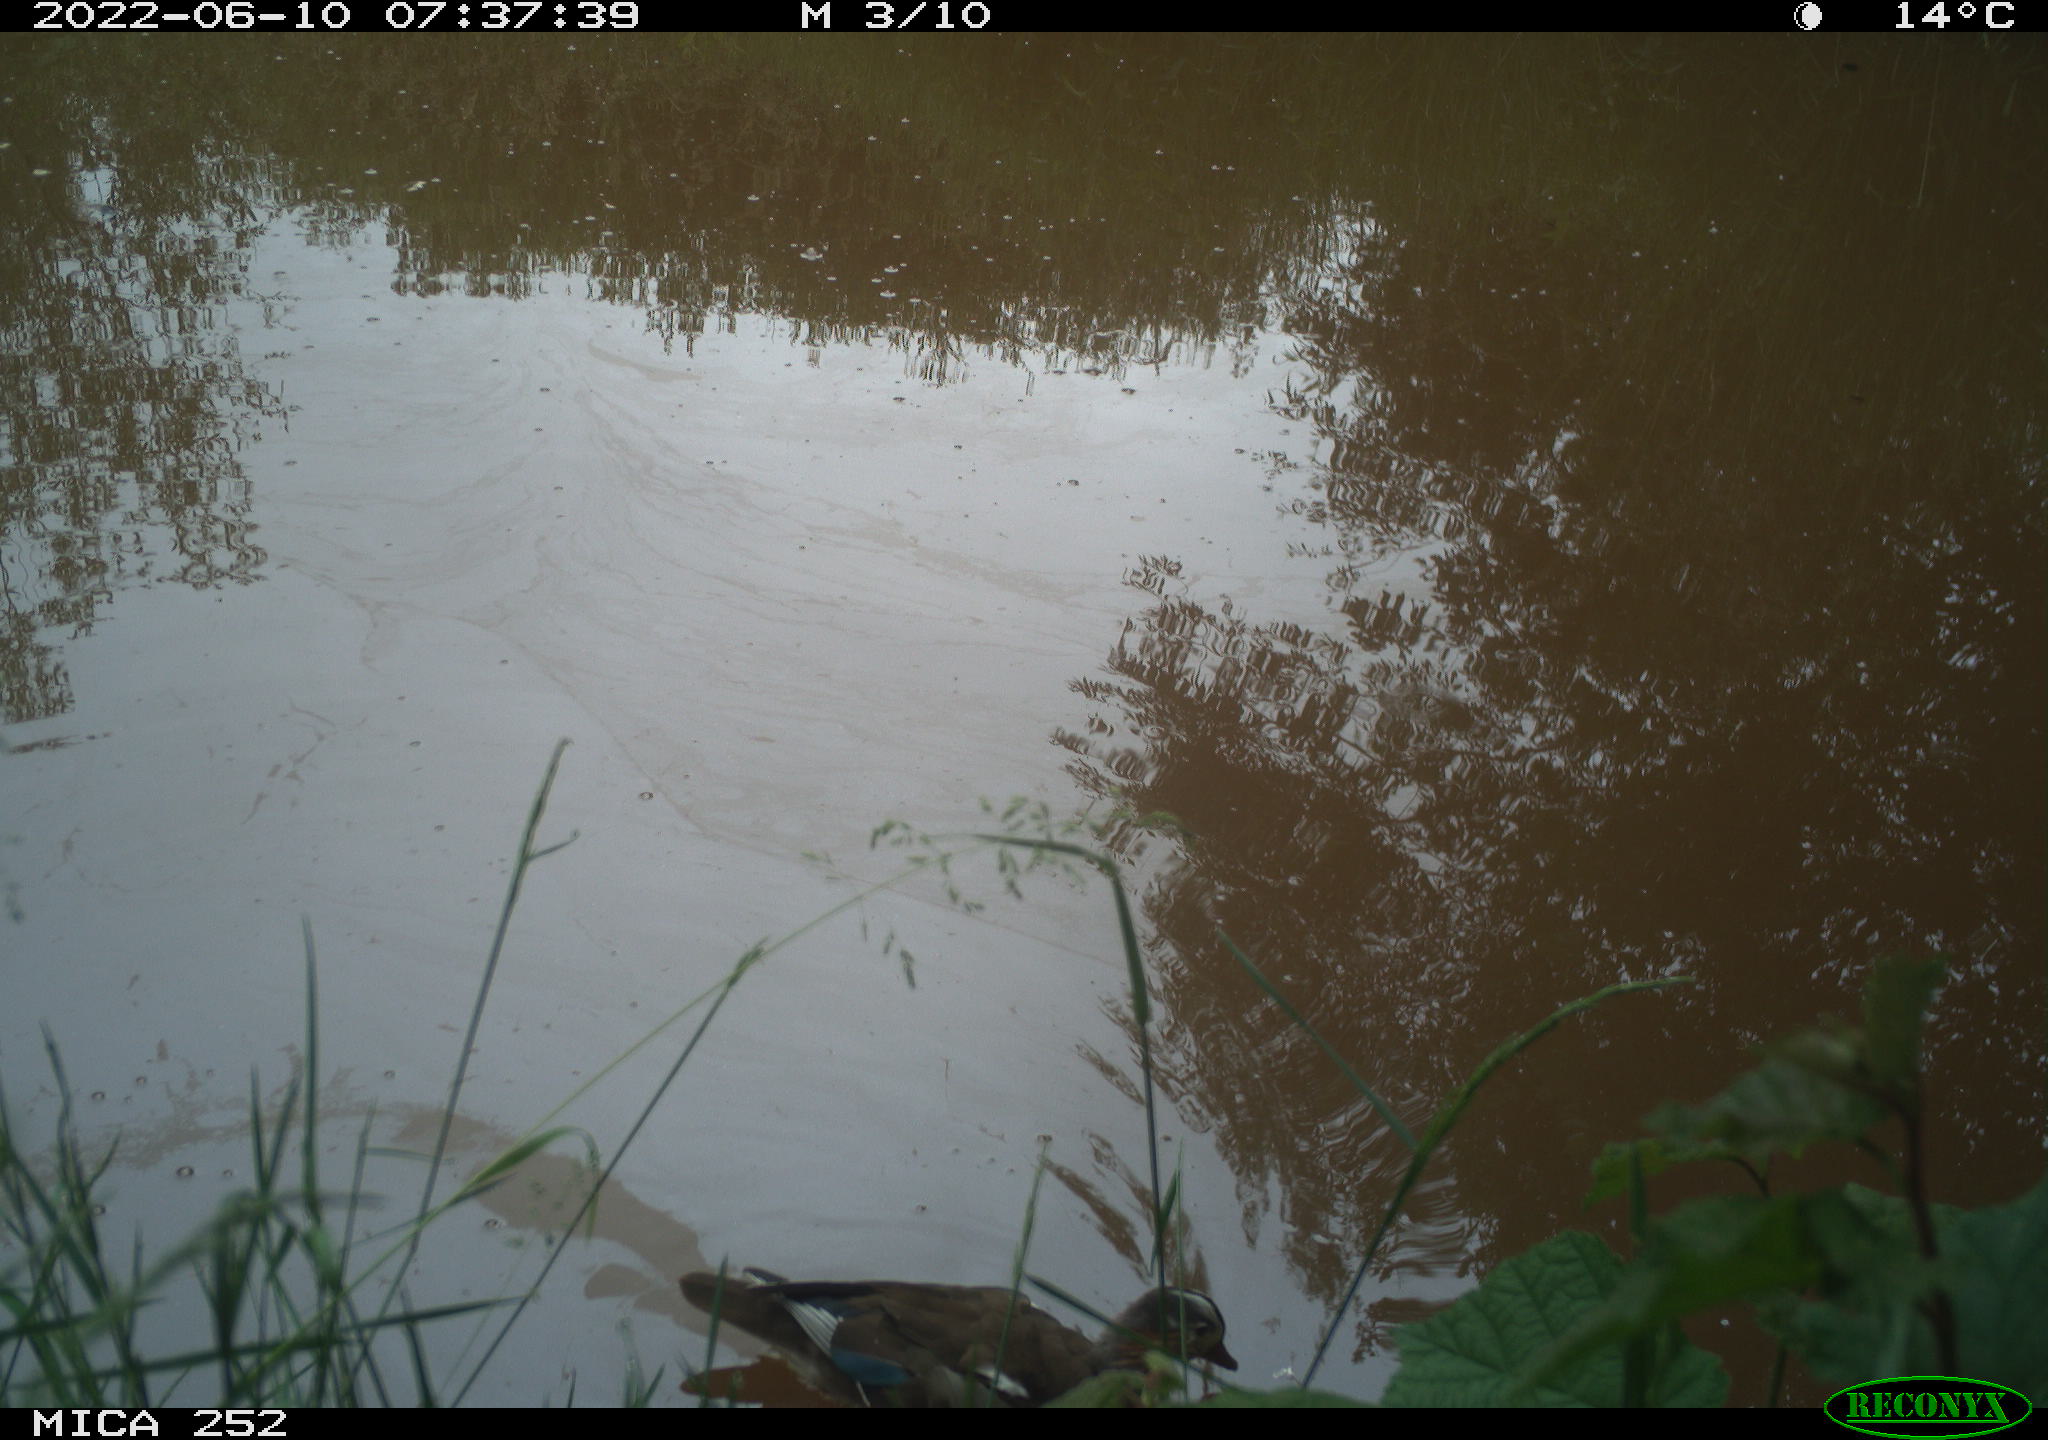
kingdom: Animalia
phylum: Chordata
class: Aves
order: Gruiformes
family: Rallidae
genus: Gallinula
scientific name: Gallinula chloropus
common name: Common moorhen
